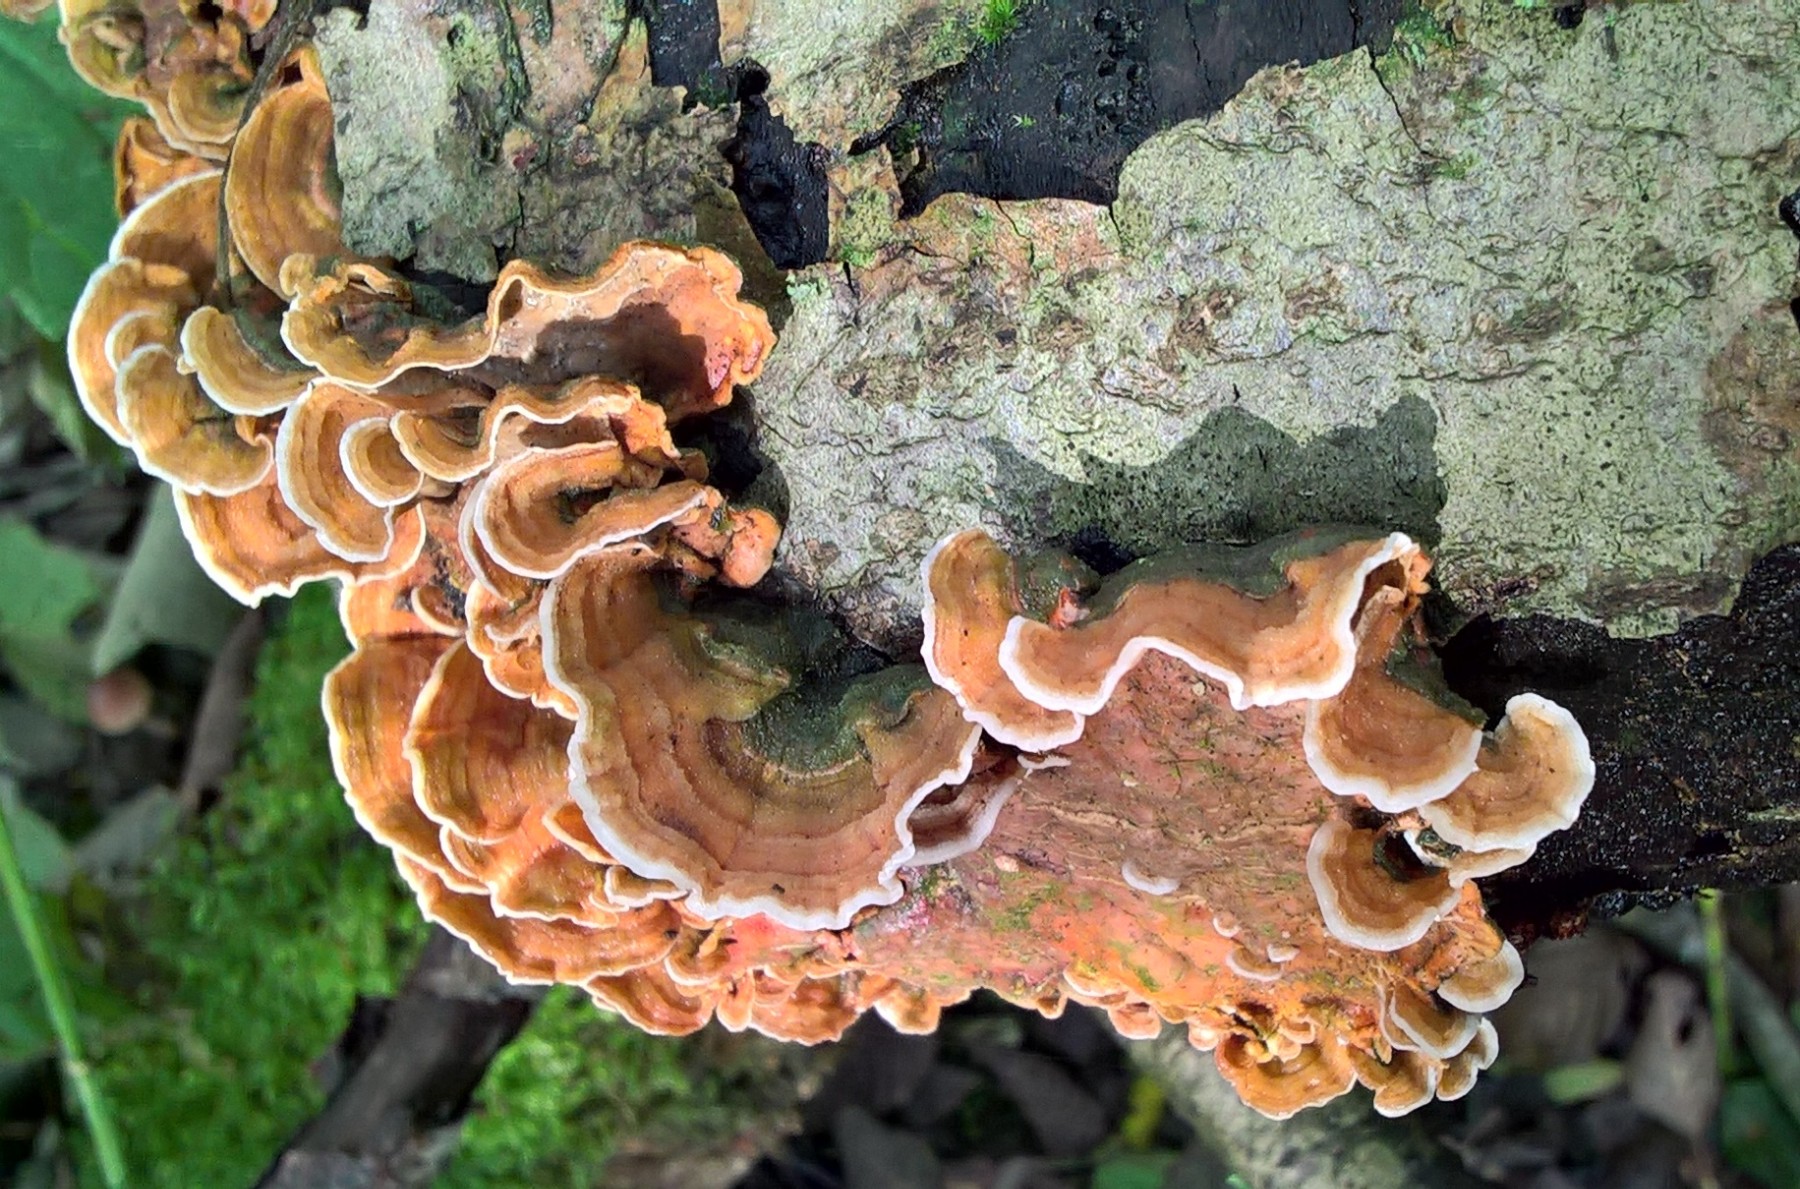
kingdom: Fungi
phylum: Basidiomycota
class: Agaricomycetes
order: Russulales
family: Stereaceae
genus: Stereum
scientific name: Stereum subtomentosum
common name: smuk lædersvamp
